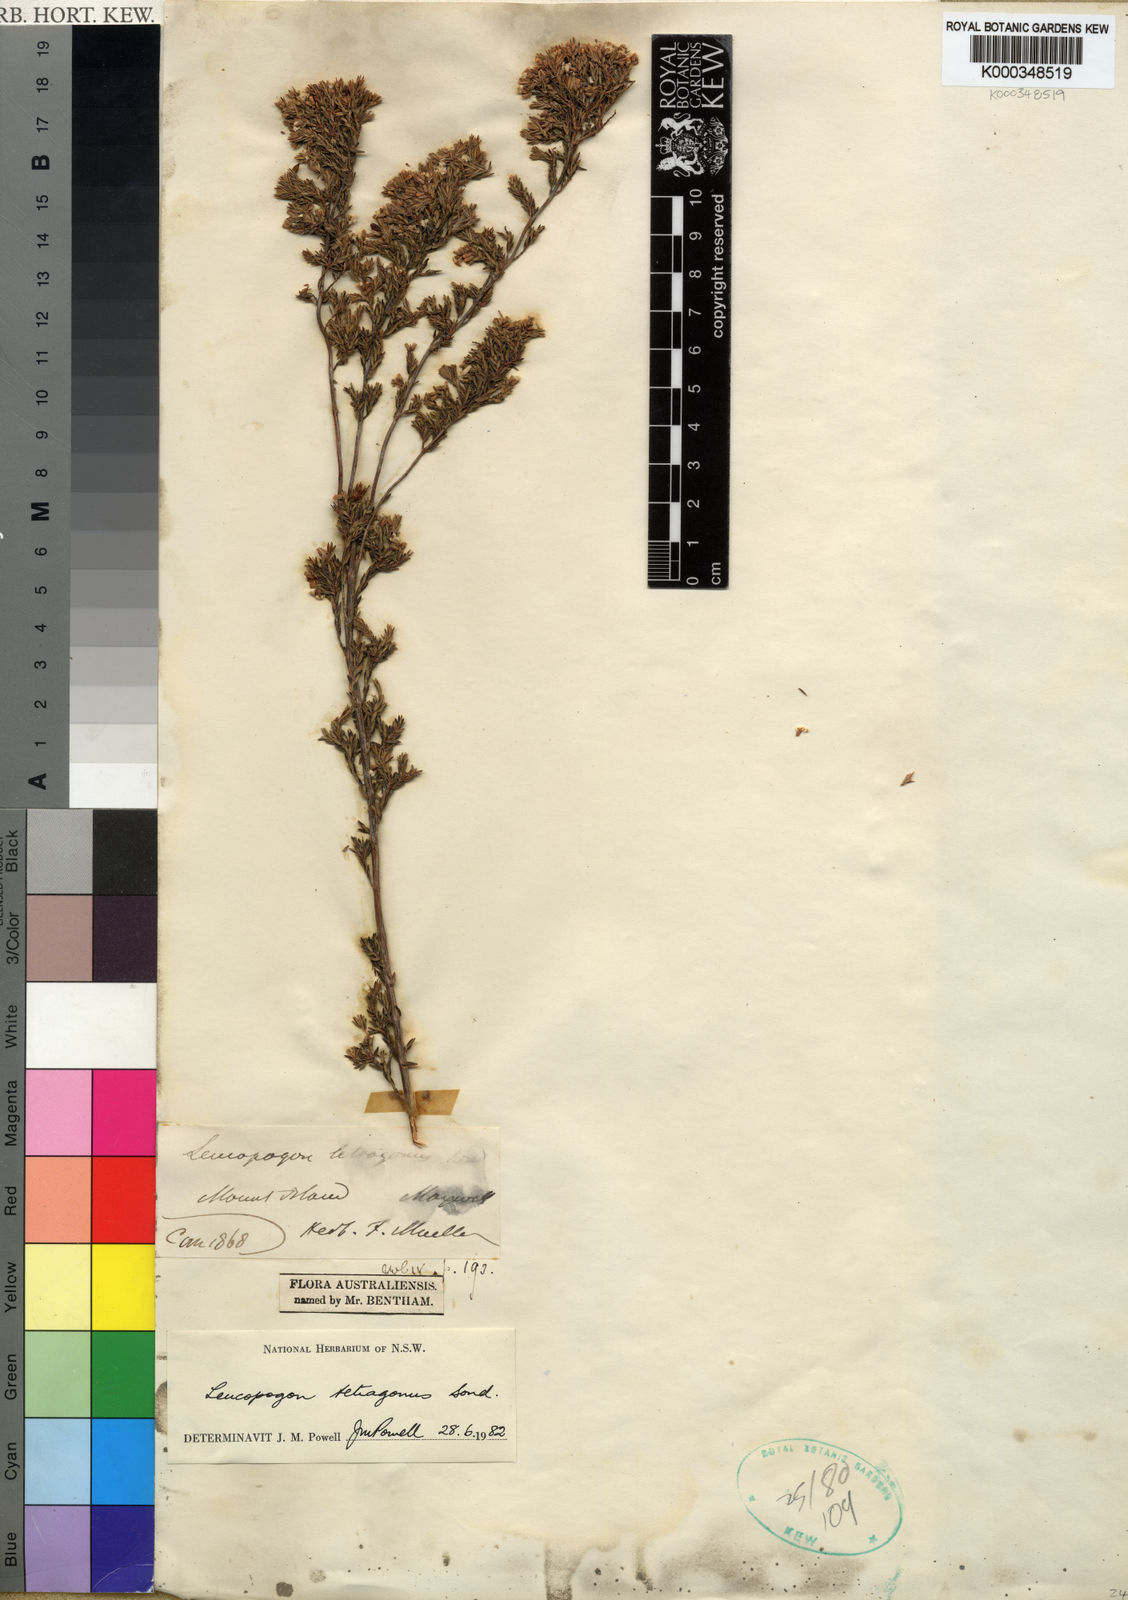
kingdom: Plantae
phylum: Tracheophyta
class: Magnoliopsida
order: Ericales
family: Ericaceae
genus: Leucopogon
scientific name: Leucopogon tetragonus
